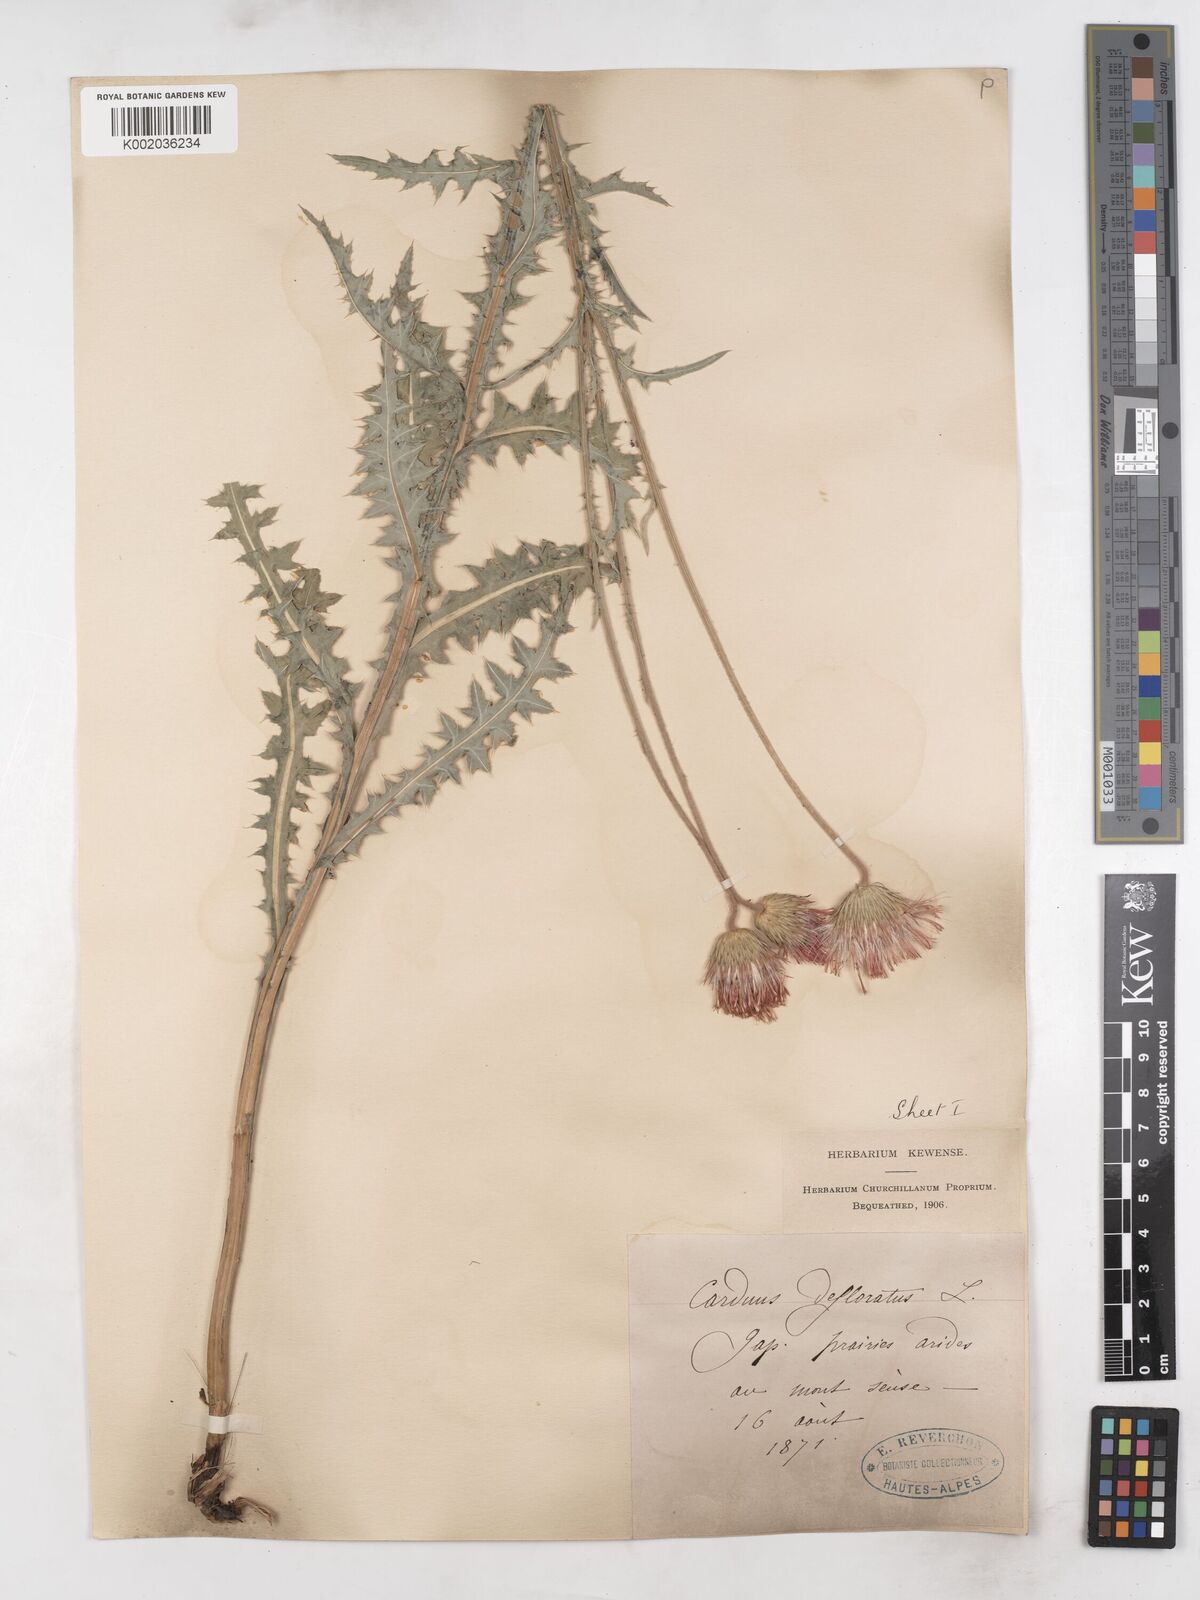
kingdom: Plantae
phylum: Tracheophyta
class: Magnoliopsida
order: Asterales
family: Asteraceae
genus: Carduus
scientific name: Carduus defloratus
